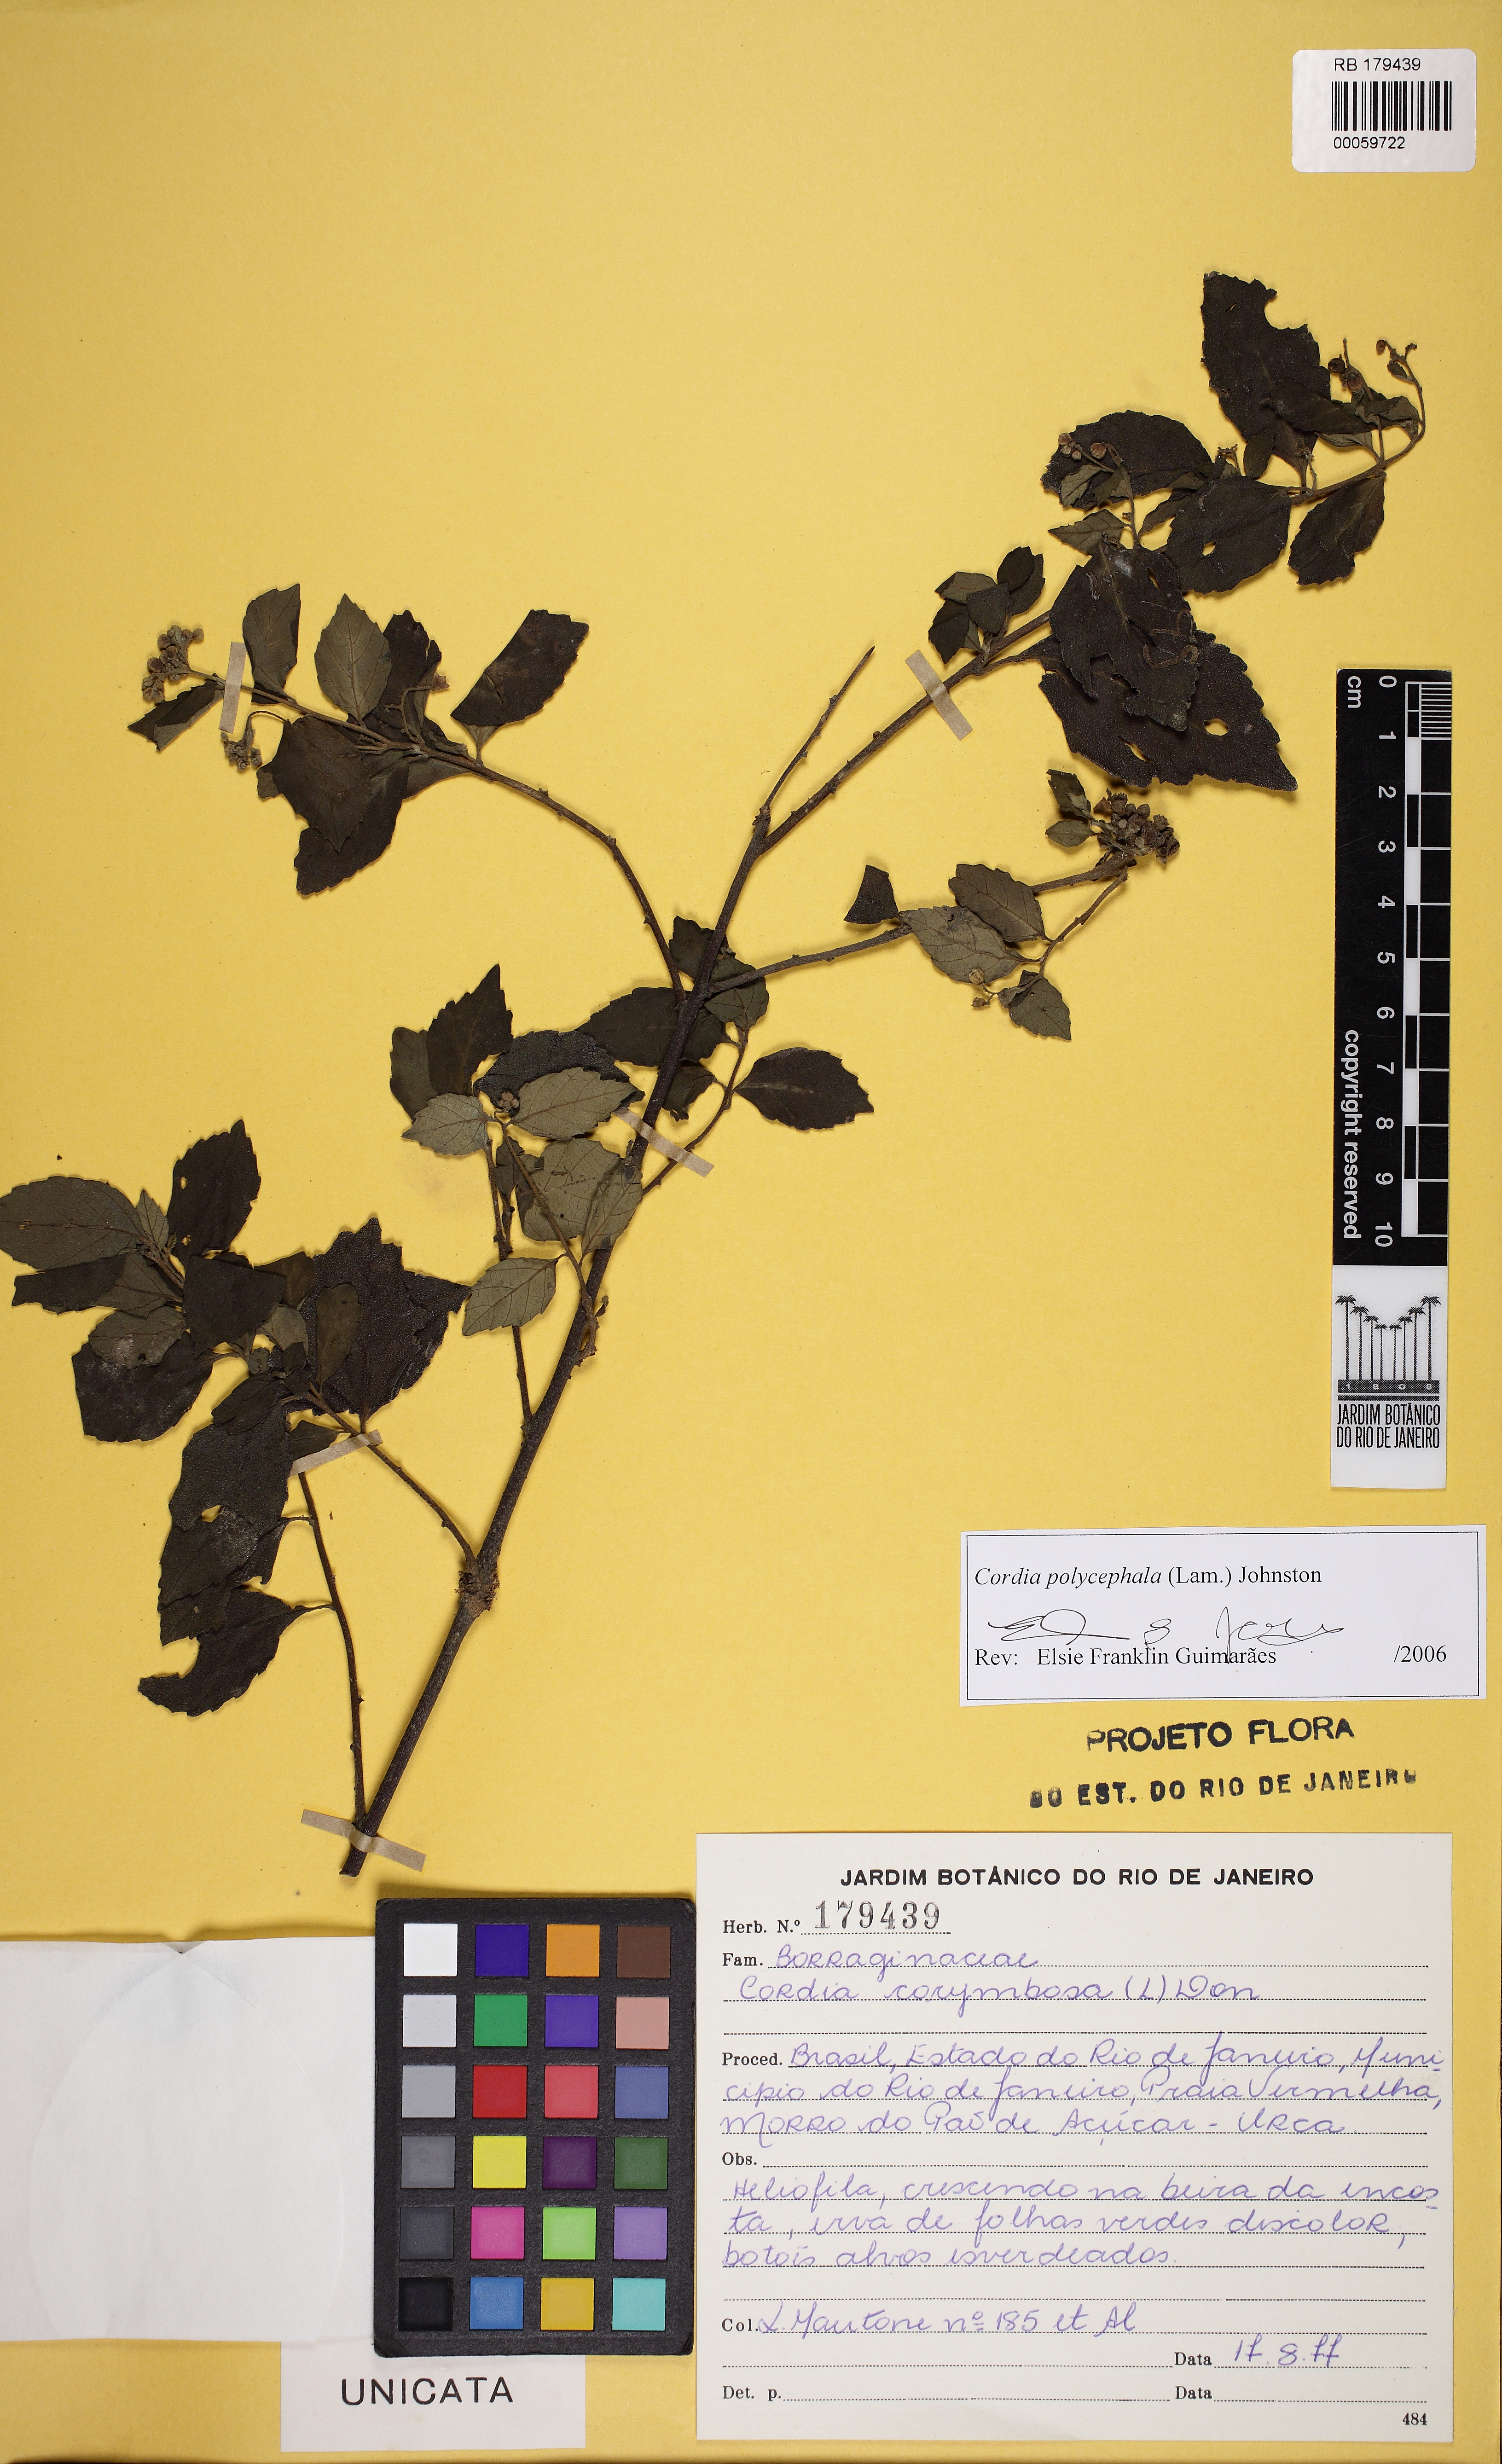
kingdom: Plantae
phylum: Tracheophyta
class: Magnoliopsida
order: Boraginales
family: Cordiaceae
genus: Varronia
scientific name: Varronia polycephala
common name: Black-sage
